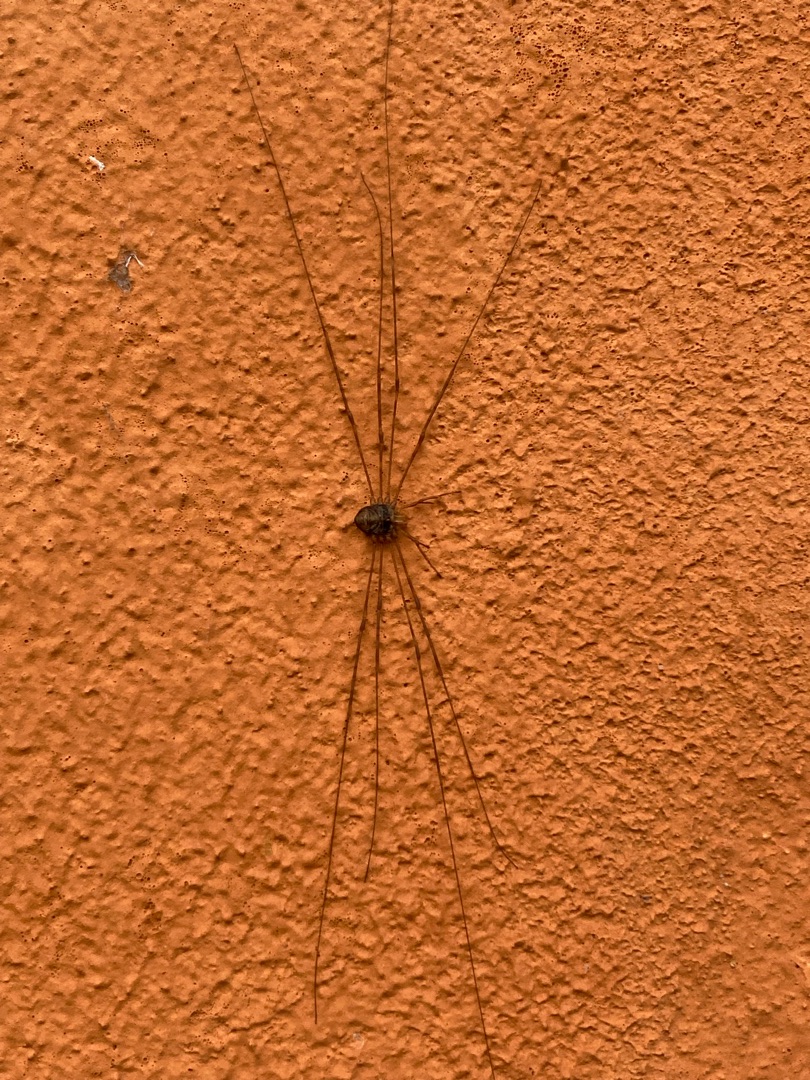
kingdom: Animalia
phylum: Arthropoda
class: Arachnida
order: Opiliones
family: Phalangiidae
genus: Dicranopalpus
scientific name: Dicranopalpus ramosus
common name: Gaffelmejer
